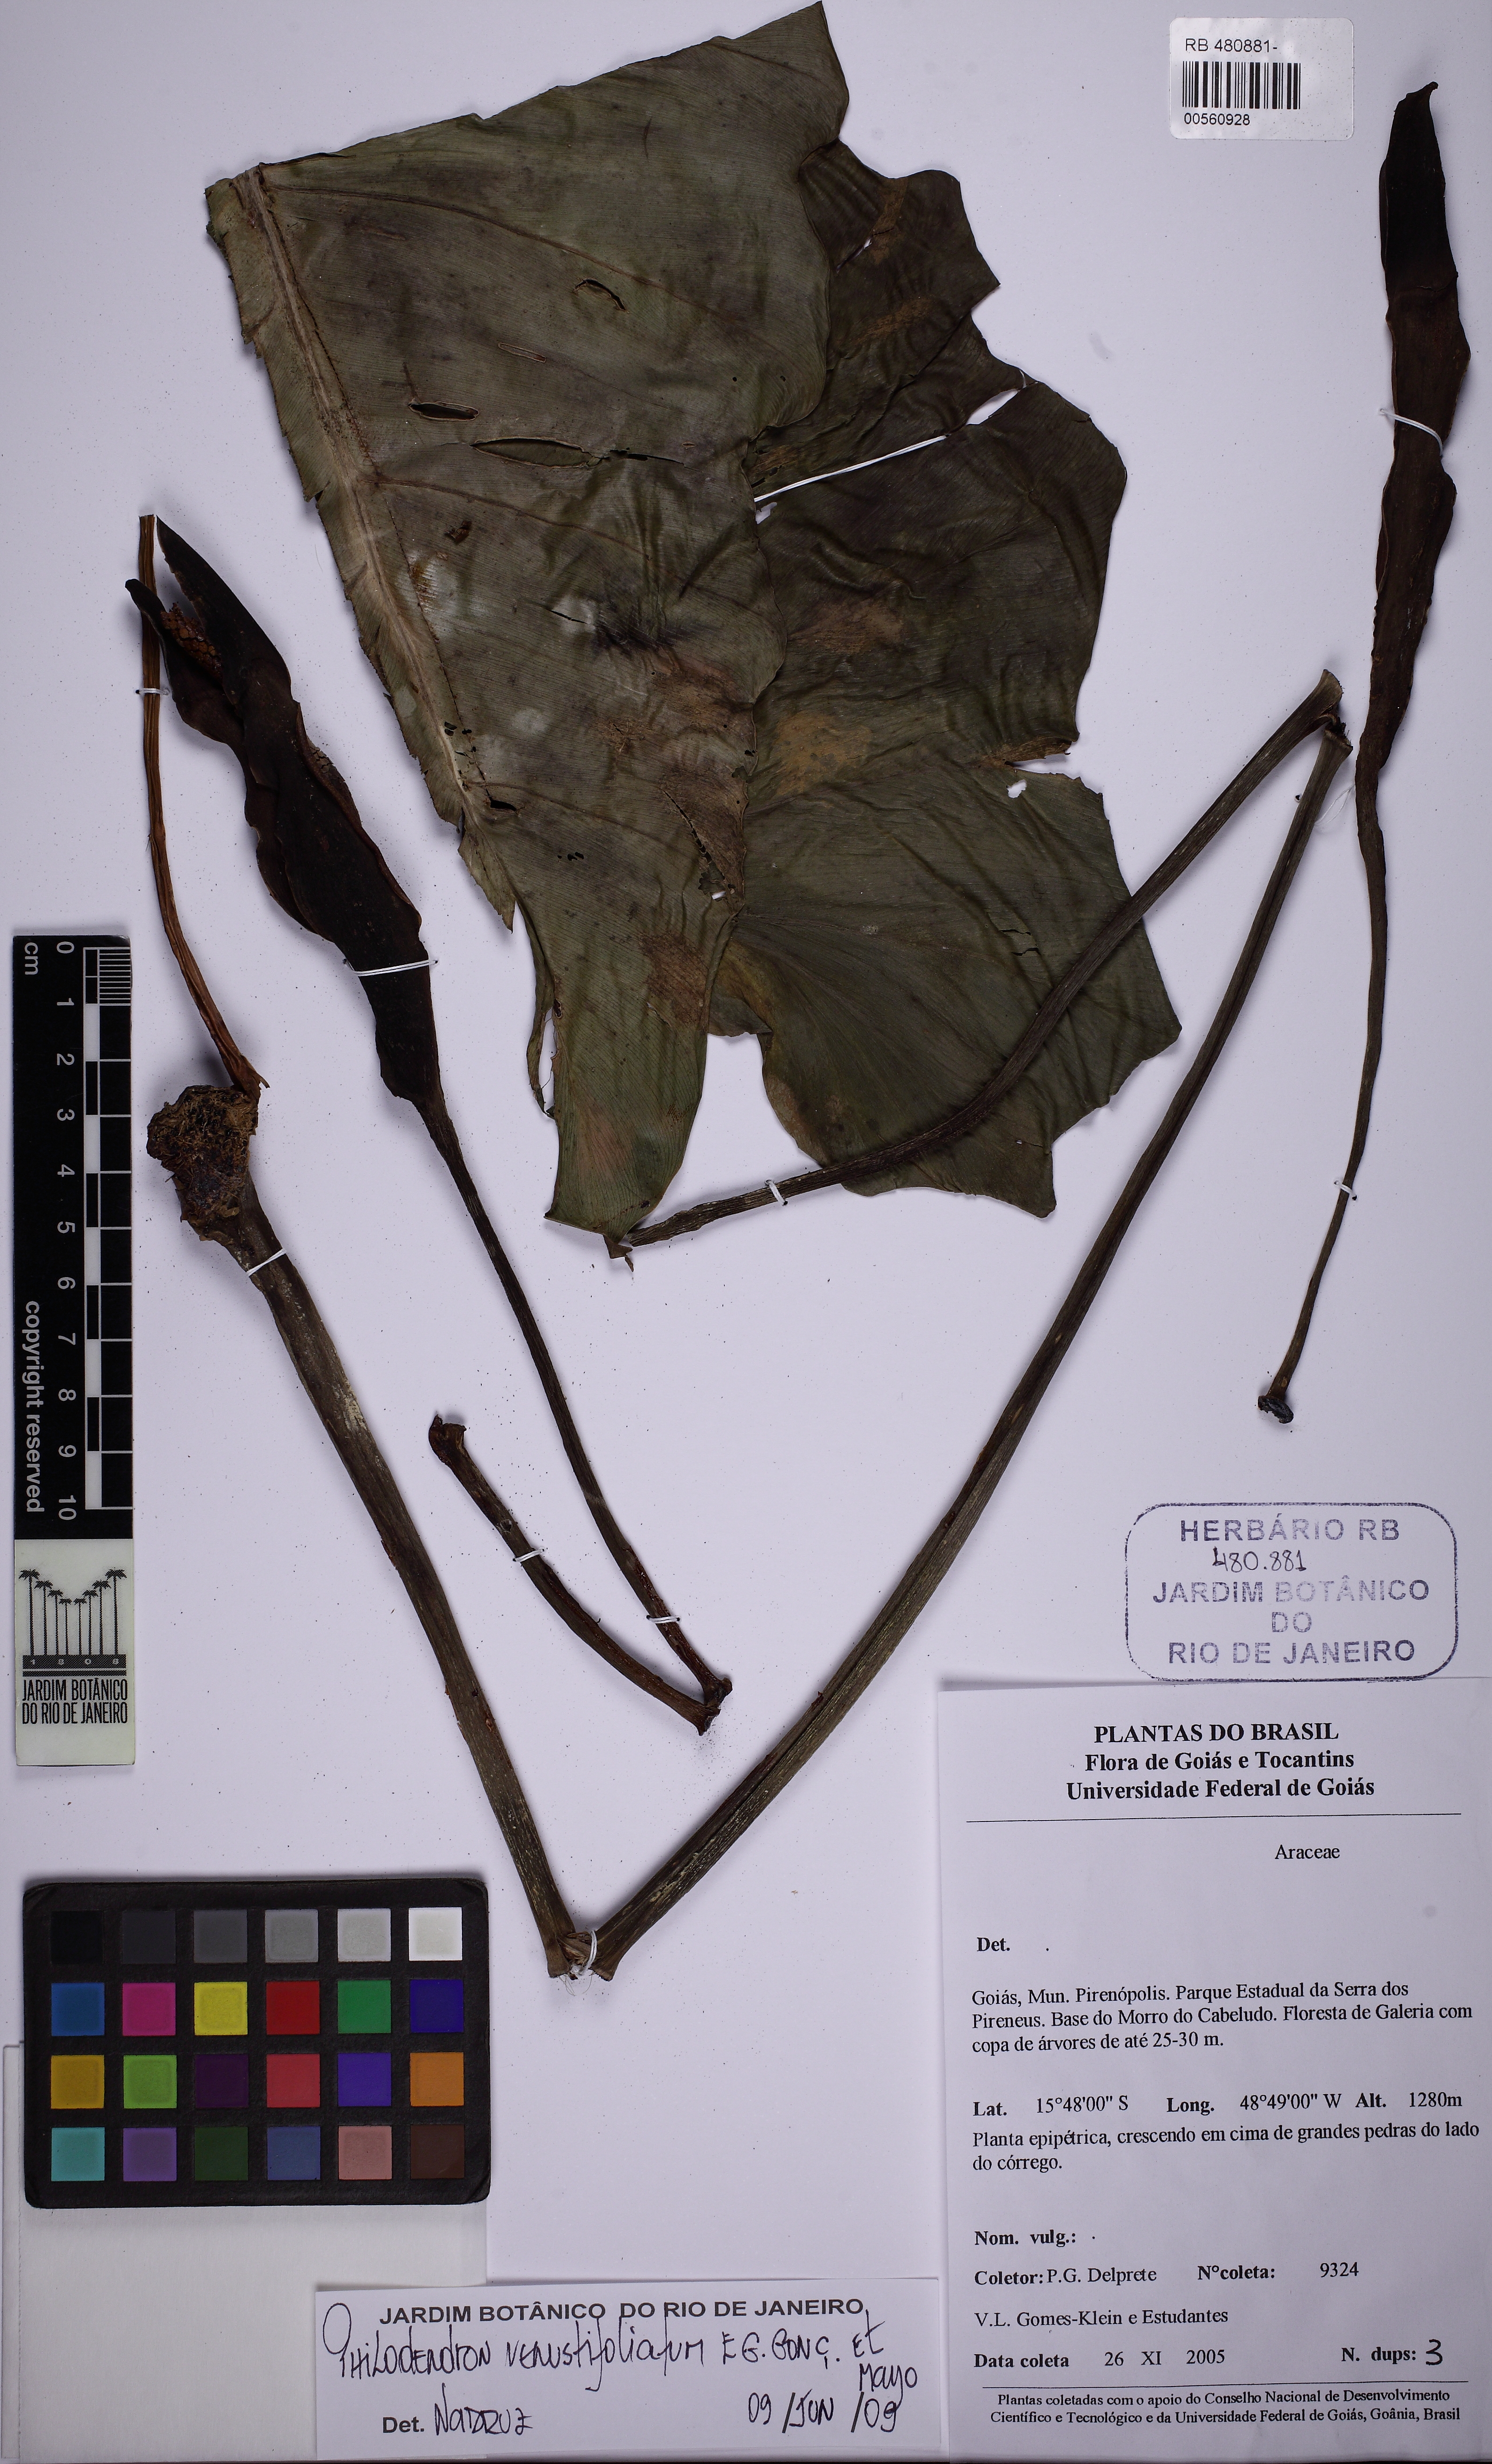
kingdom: Plantae
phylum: Tracheophyta
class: Liliopsida
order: Alismatales
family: Araceae
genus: Philodendron
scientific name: Philodendron venustifoliatum
